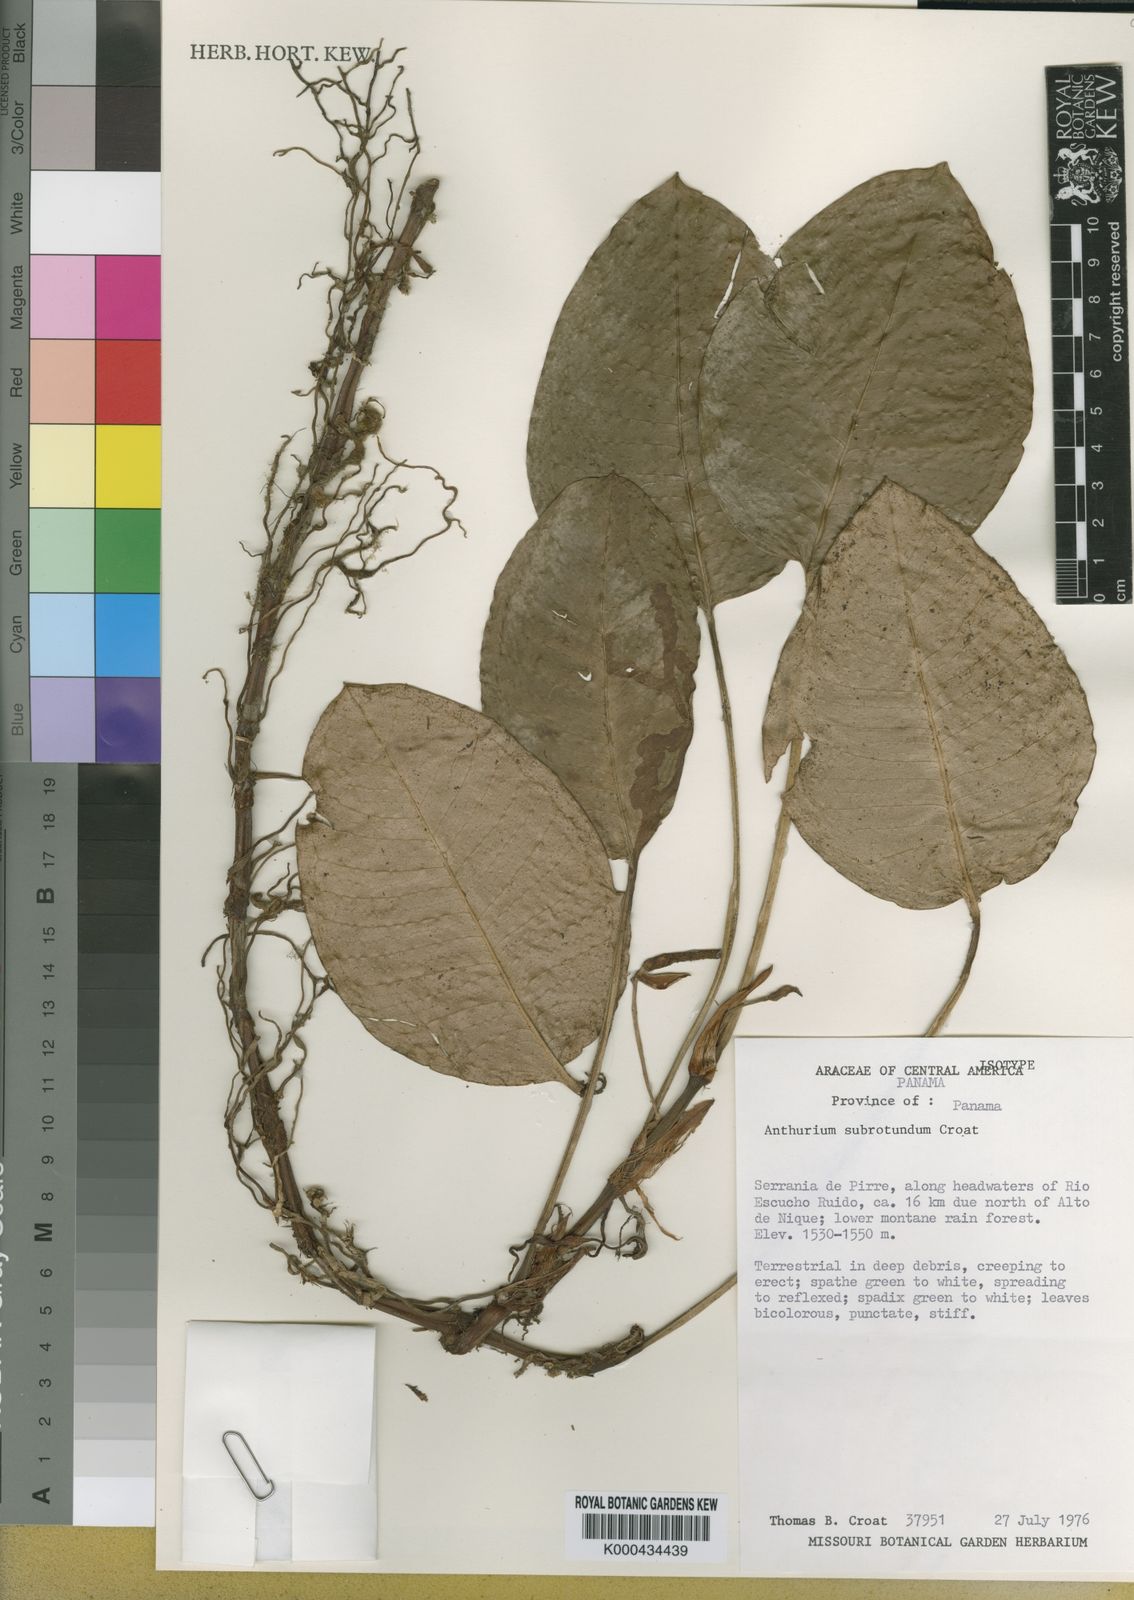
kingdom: Plantae
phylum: Tracheophyta
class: Liliopsida
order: Alismatales
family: Araceae
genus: Anthurium
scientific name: Anthurium subrotundum
